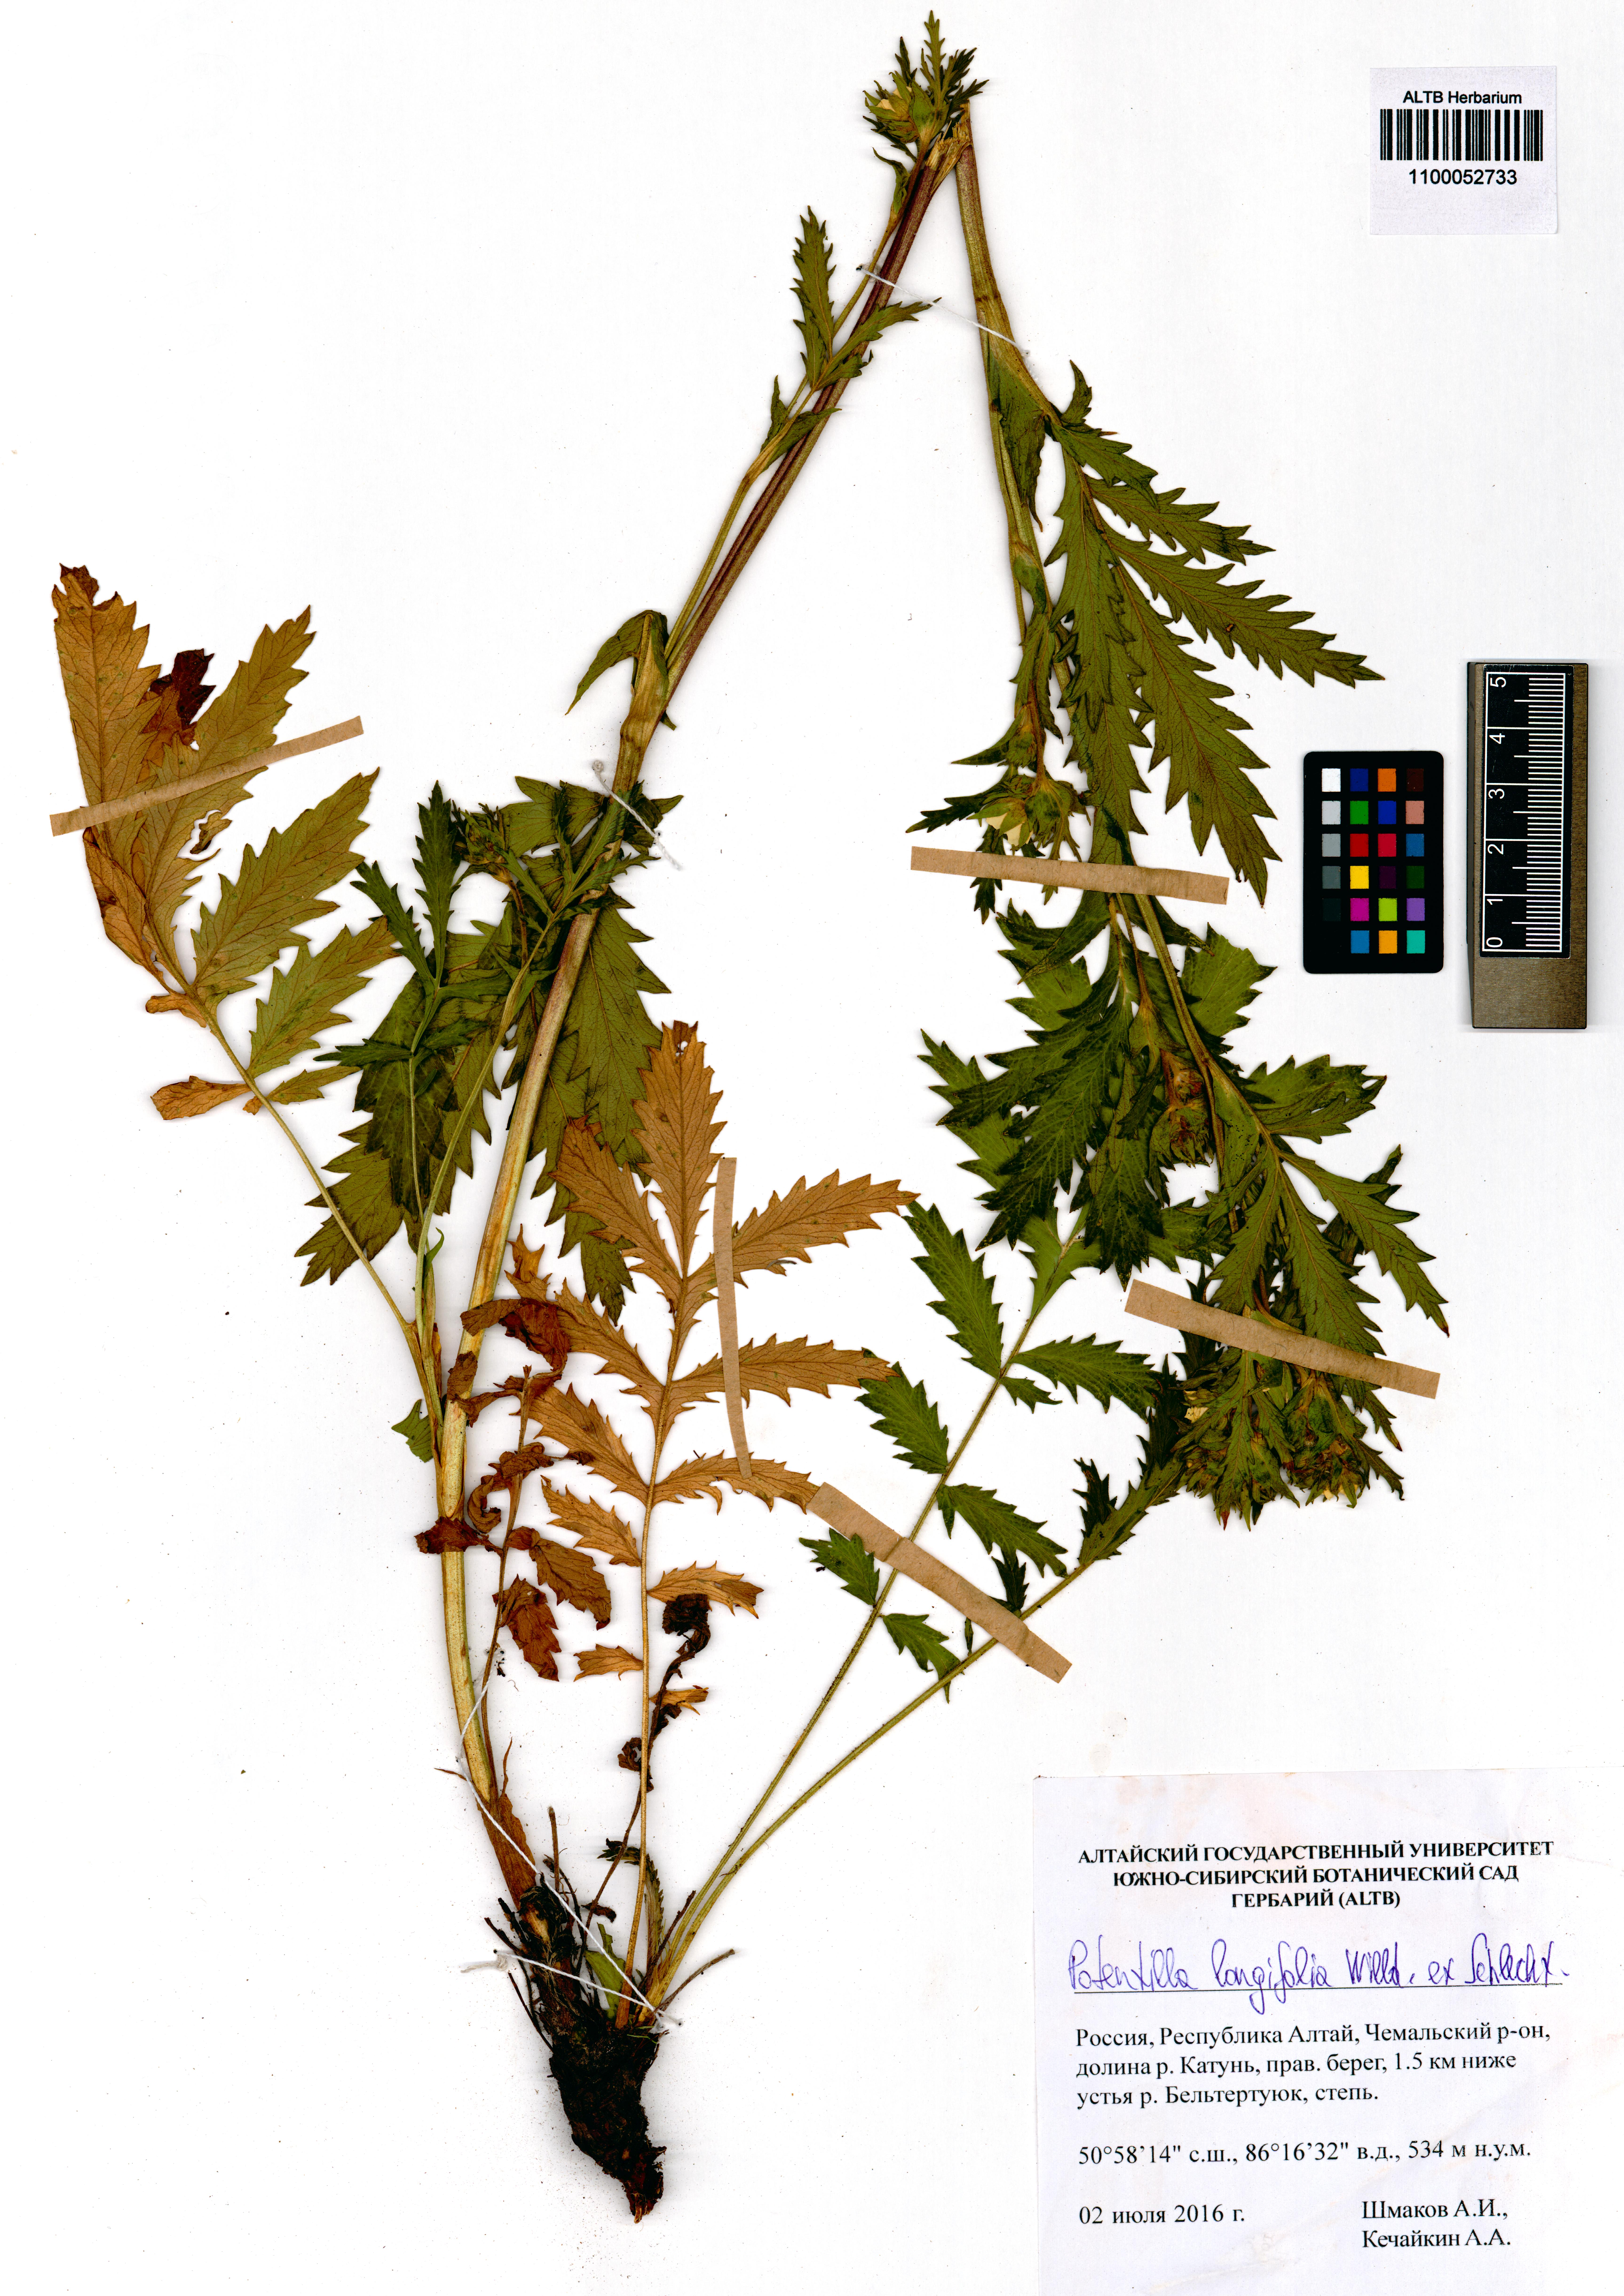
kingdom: Plantae
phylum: Tracheophyta
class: Magnoliopsida
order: Rosales
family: Rosaceae
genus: Potentilla
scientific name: Potentilla longifolia
